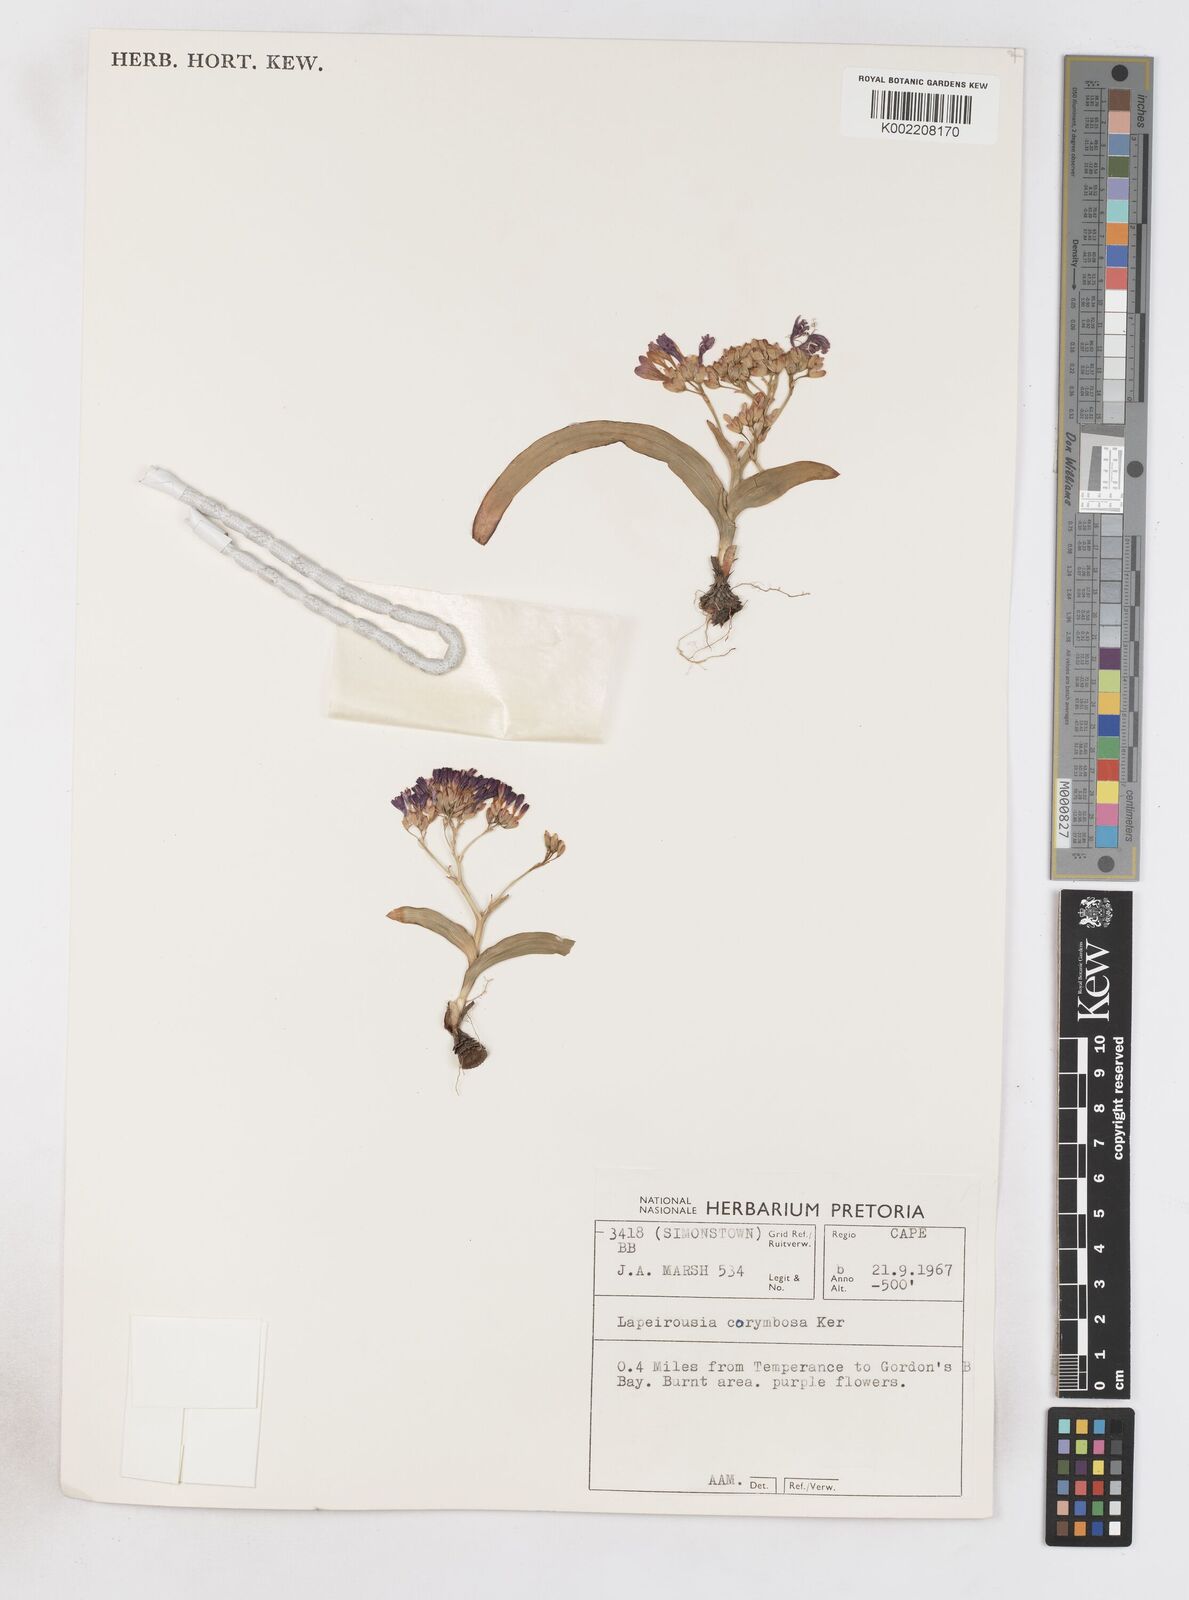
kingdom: Plantae
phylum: Tracheophyta
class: Liliopsida
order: Asparagales
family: Iridaceae
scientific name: Iridaceae
